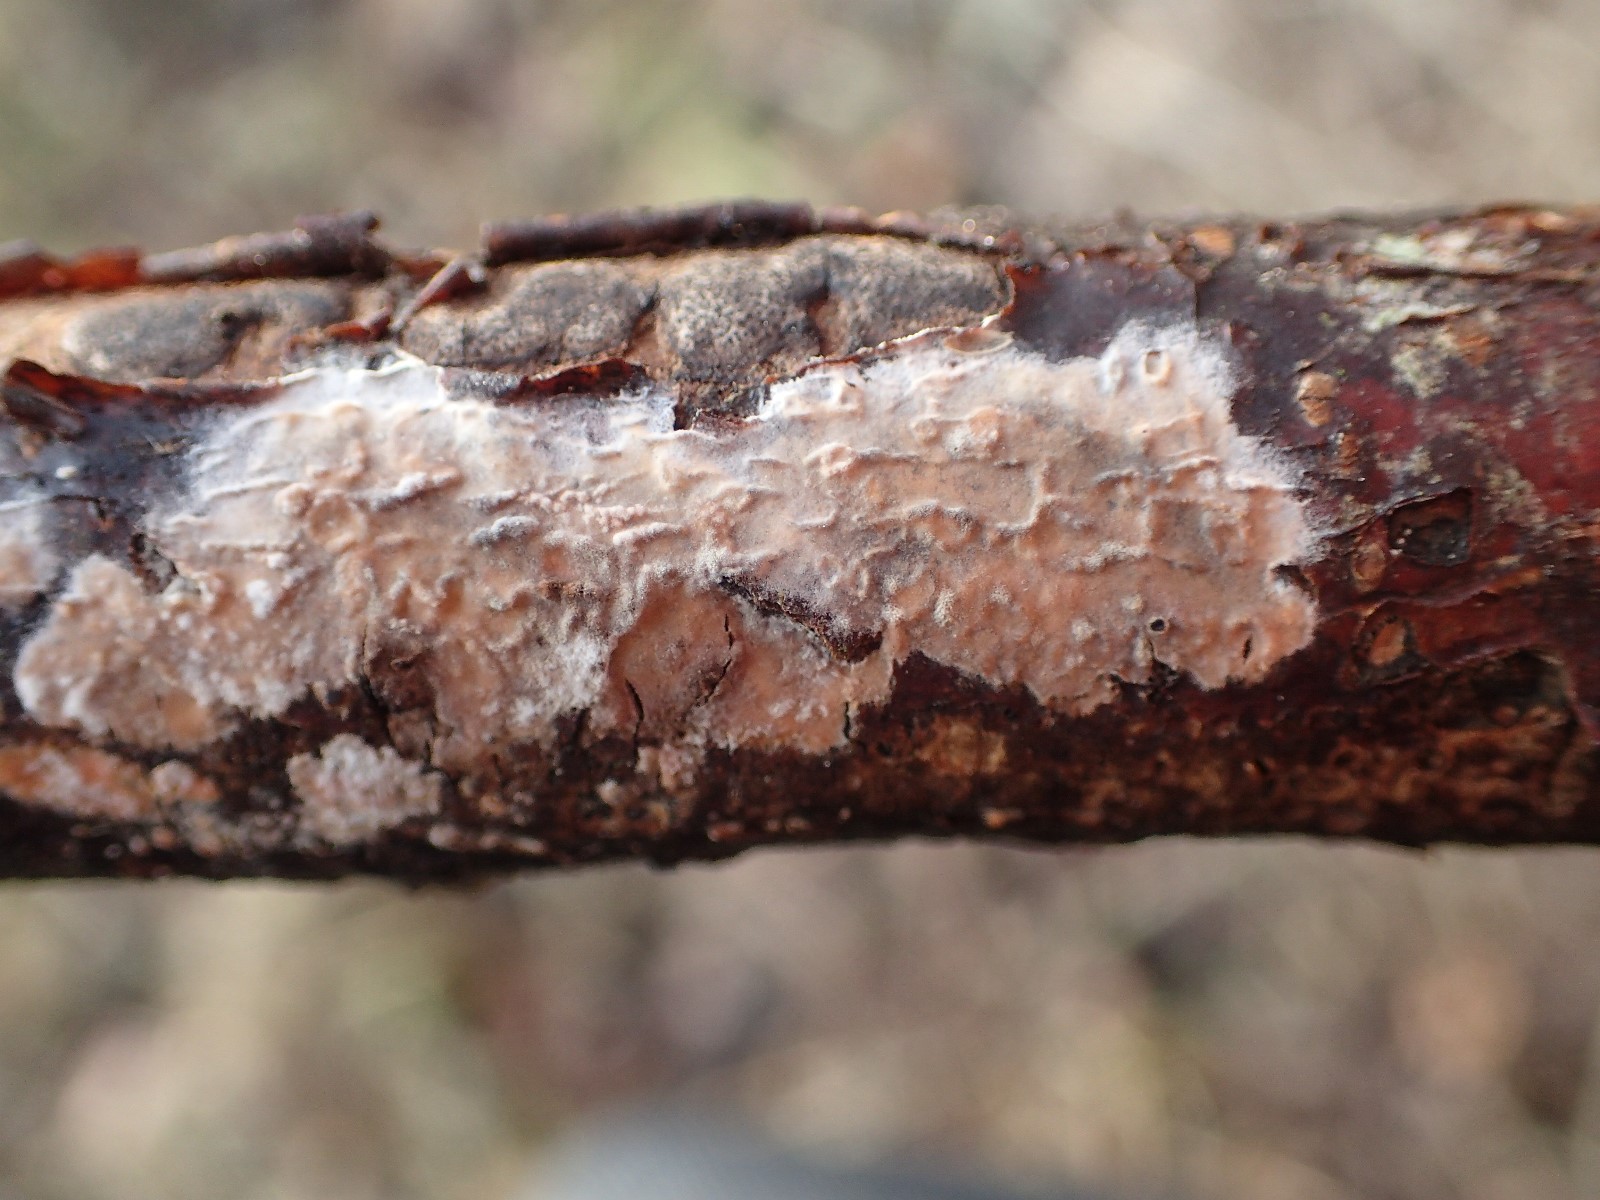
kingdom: Fungi
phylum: Basidiomycota
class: Agaricomycetes
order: Corticiales
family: Corticiaceae
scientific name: Corticiaceae
